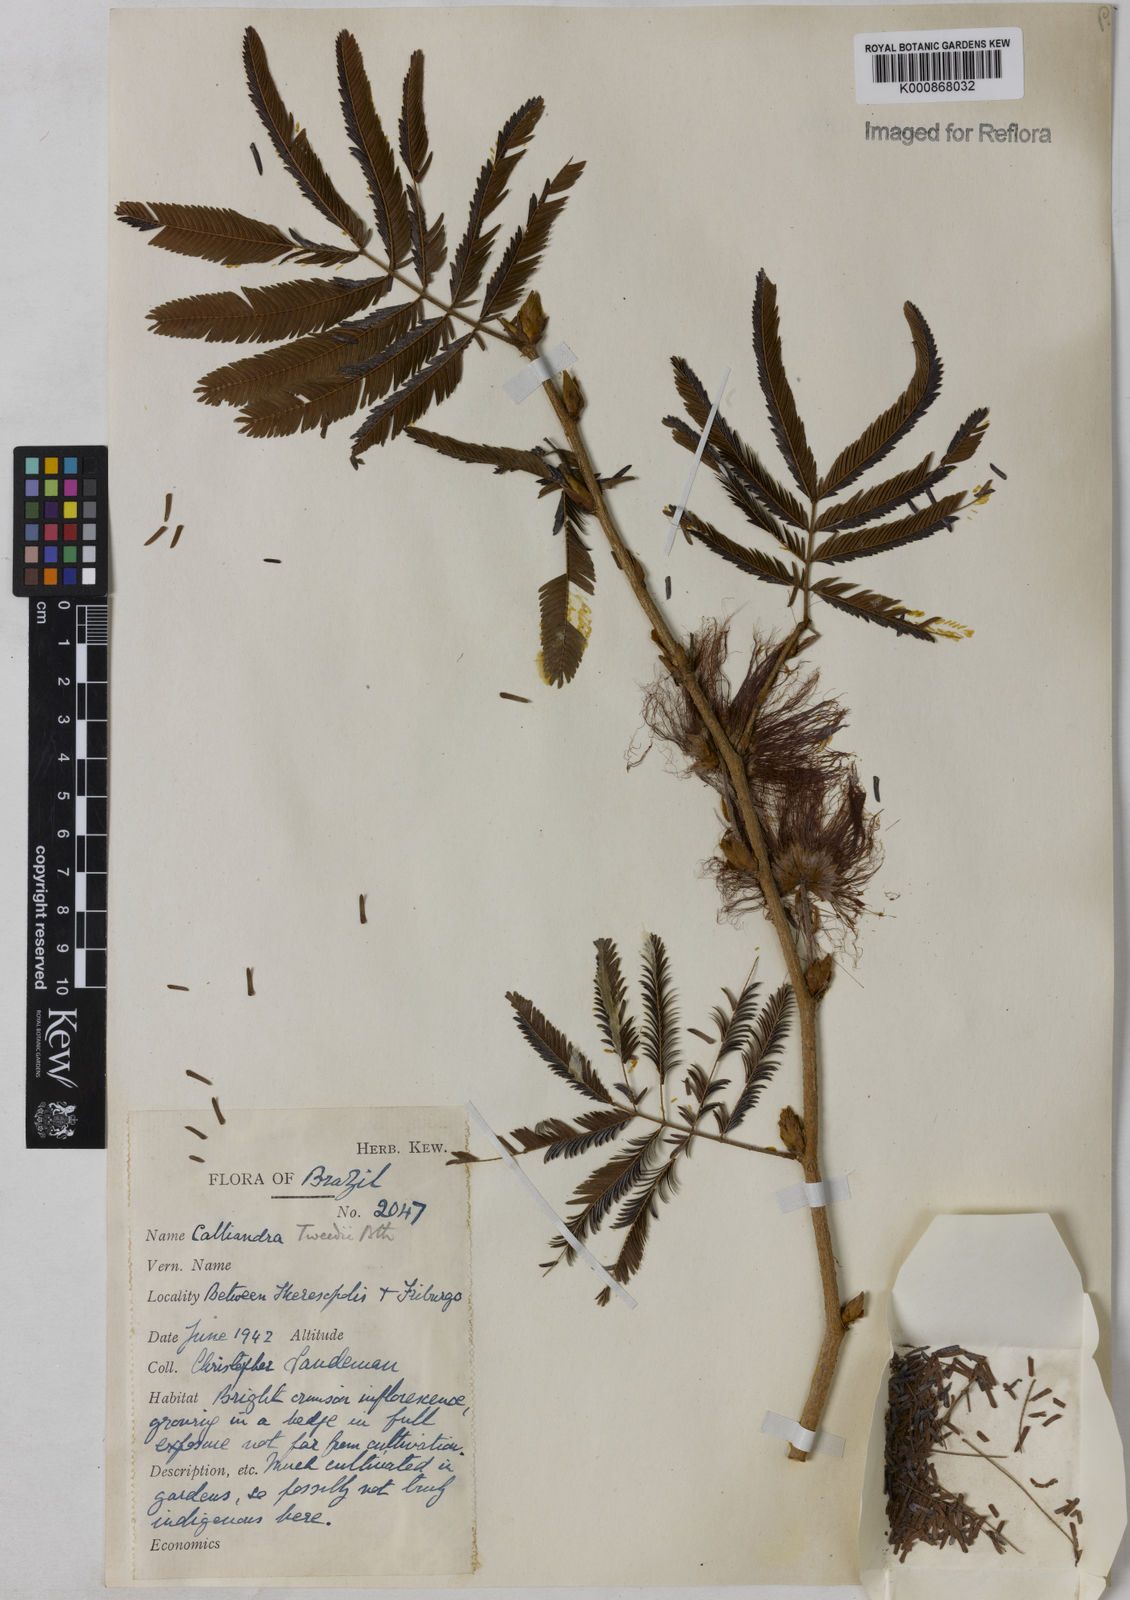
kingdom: Plantae
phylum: Tracheophyta
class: Magnoliopsida
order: Fabales
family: Fabaceae
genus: Calliandra
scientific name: Calliandra tweediei
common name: Mexican flamebush
